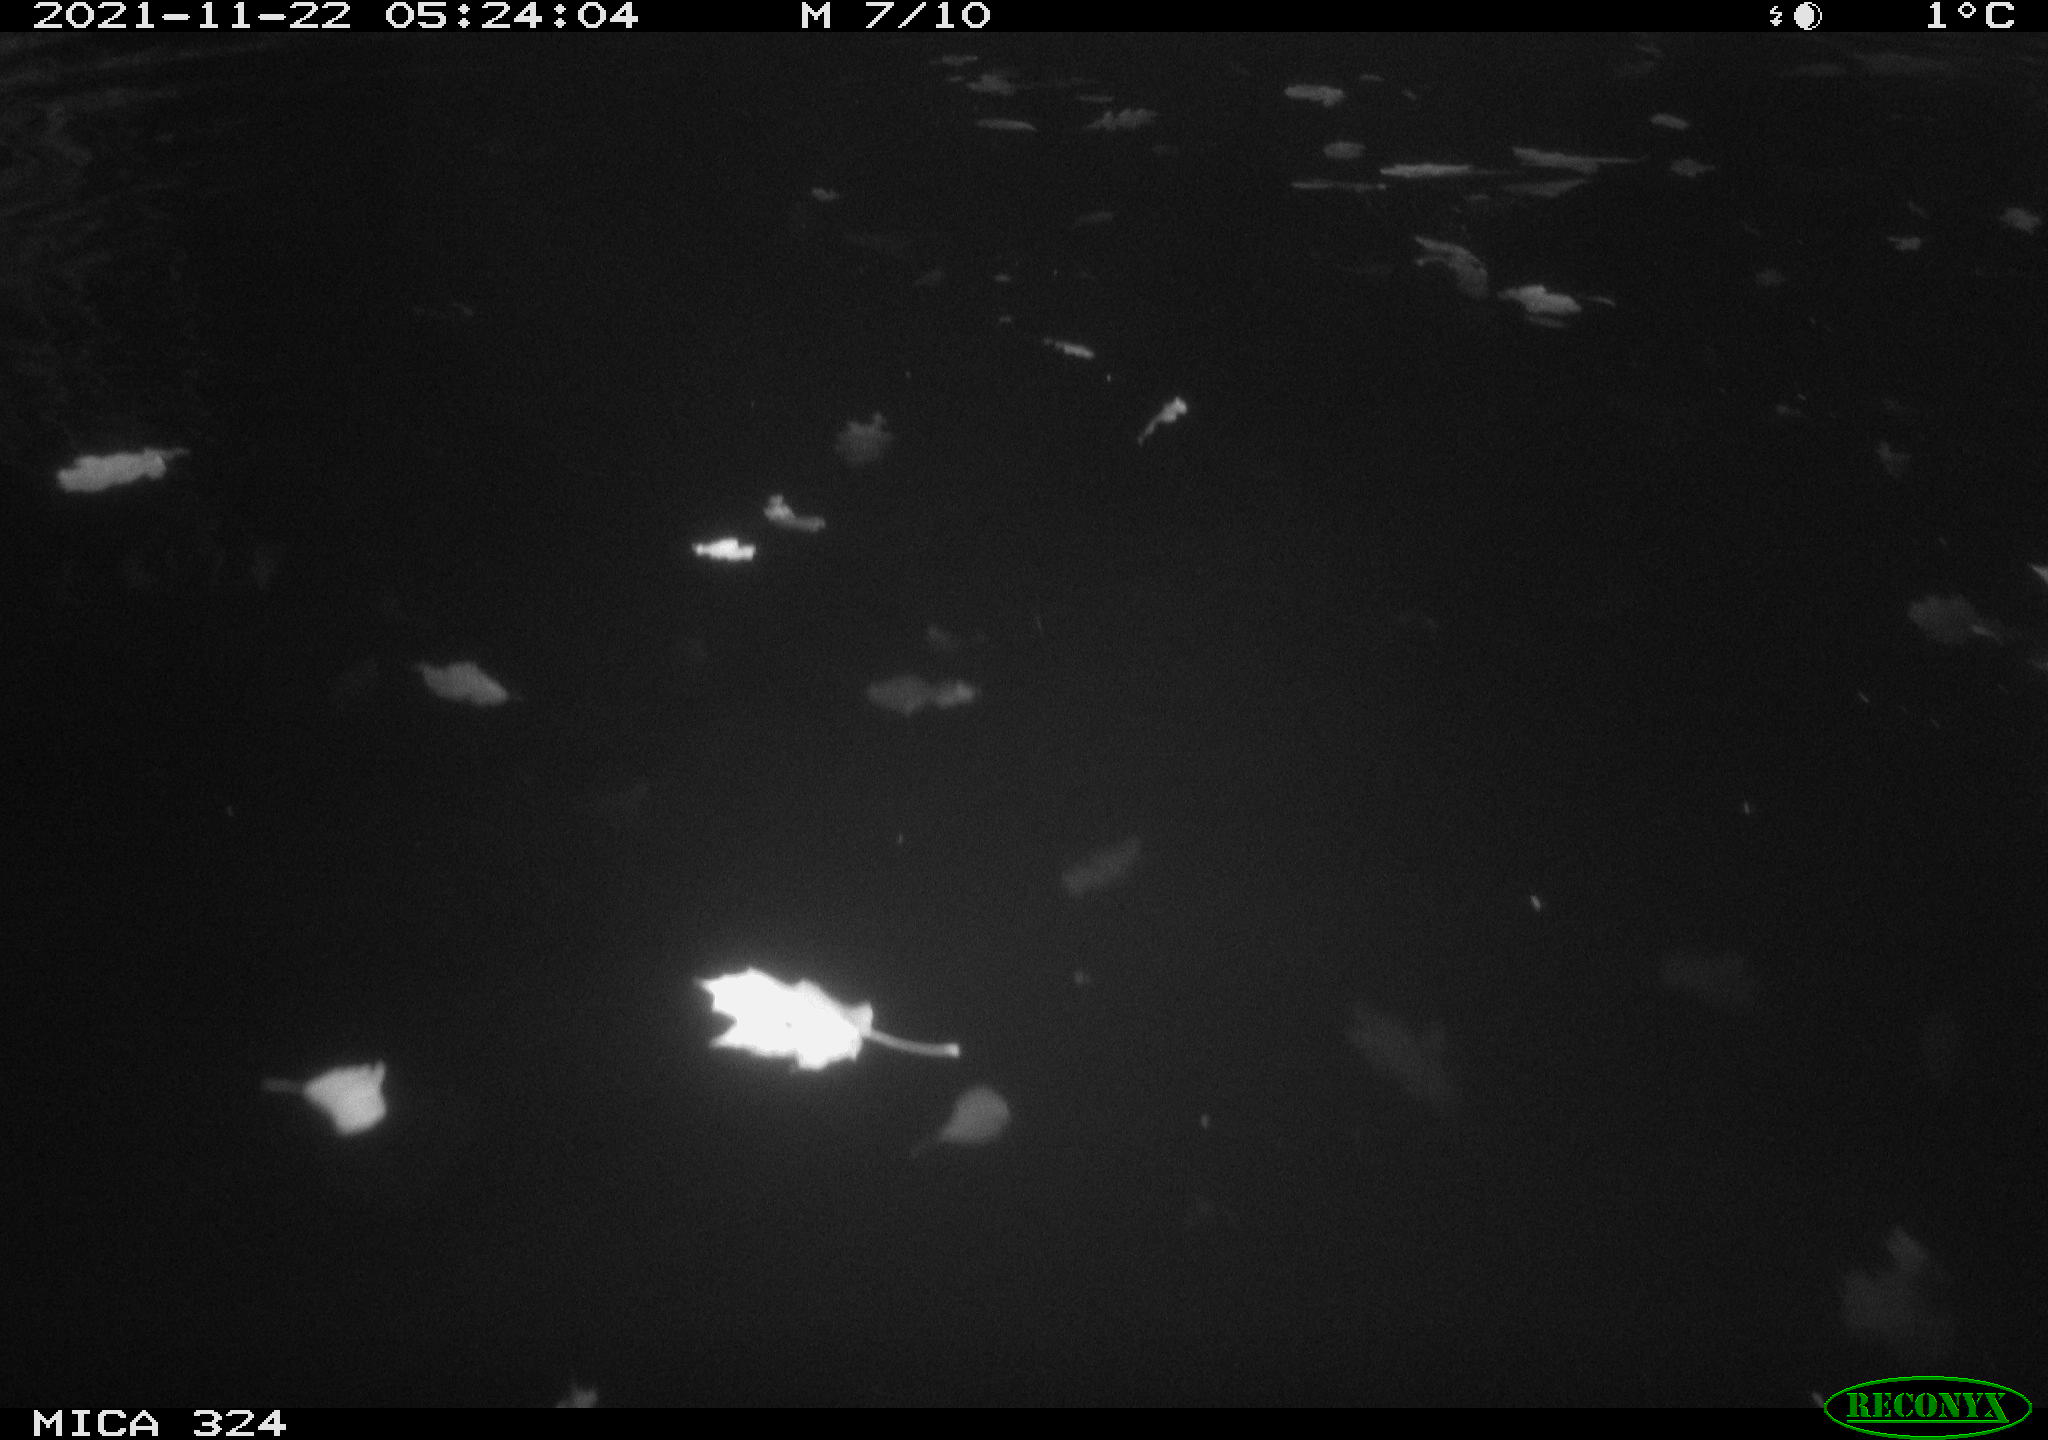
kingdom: Animalia
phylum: Chordata
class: Mammalia
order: Rodentia
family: Cricetidae
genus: Ondatra
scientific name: Ondatra zibethicus
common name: Muskrat
